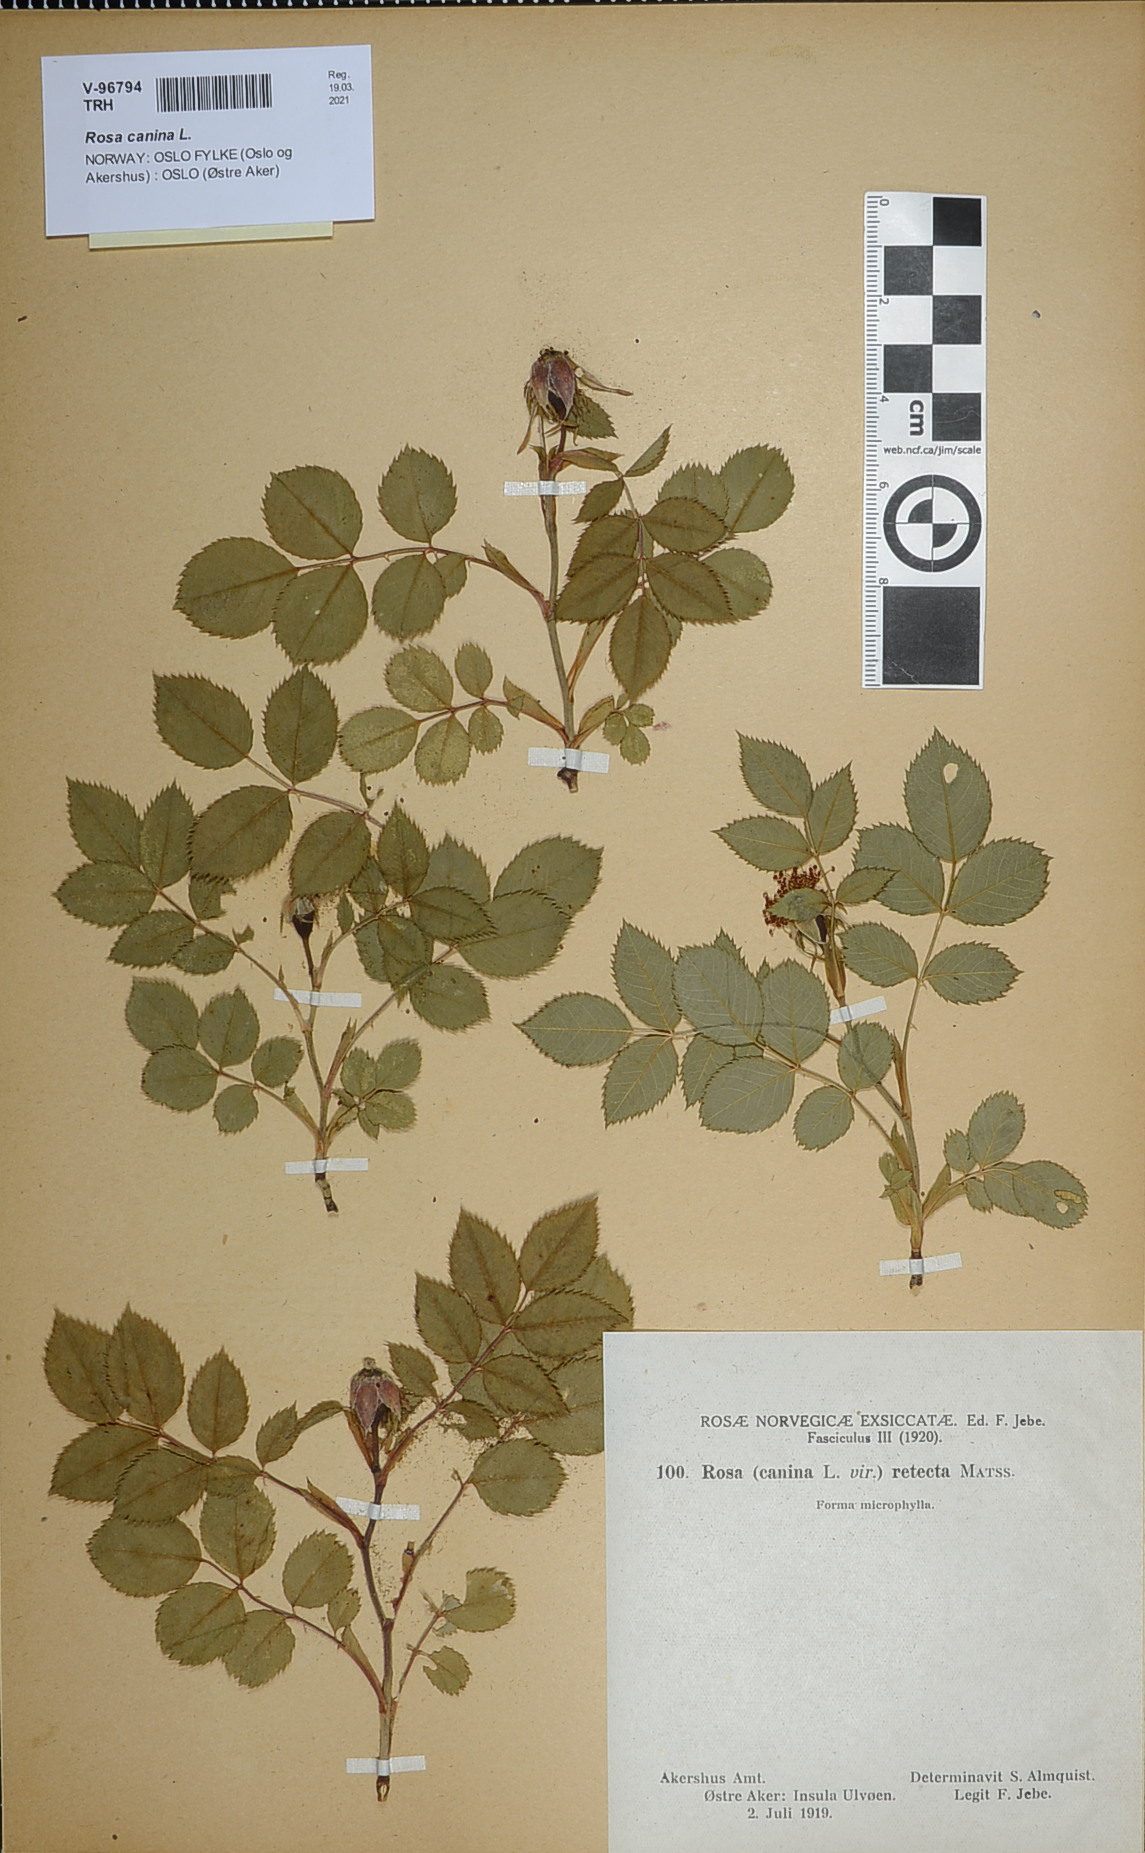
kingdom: Plantae
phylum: Tracheophyta
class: Magnoliopsida
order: Rosales
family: Rosaceae
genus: Rosa
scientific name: Rosa canina
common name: Dog rose
